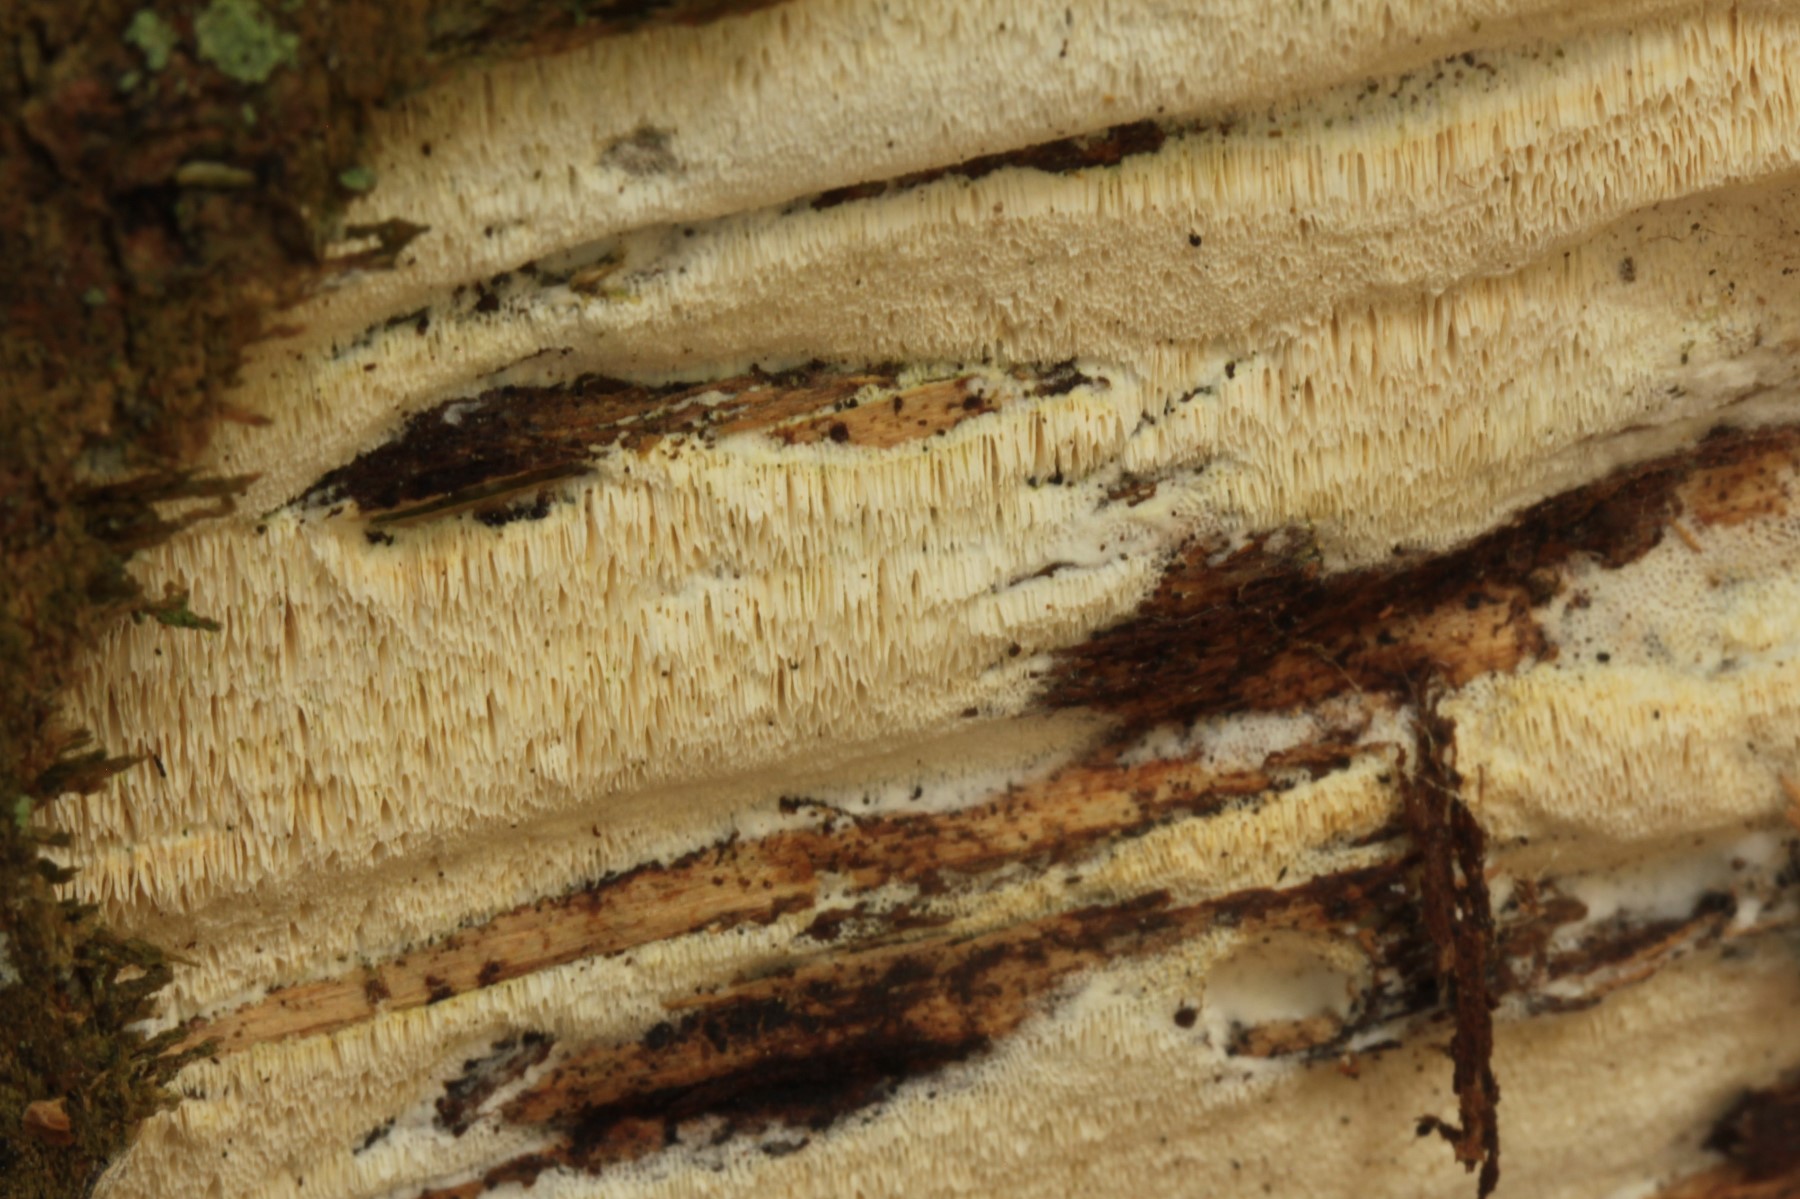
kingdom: Fungi
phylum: Basidiomycota
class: Agaricomycetes
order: Polyporales
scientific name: Polyporales
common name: poresvampordenen
